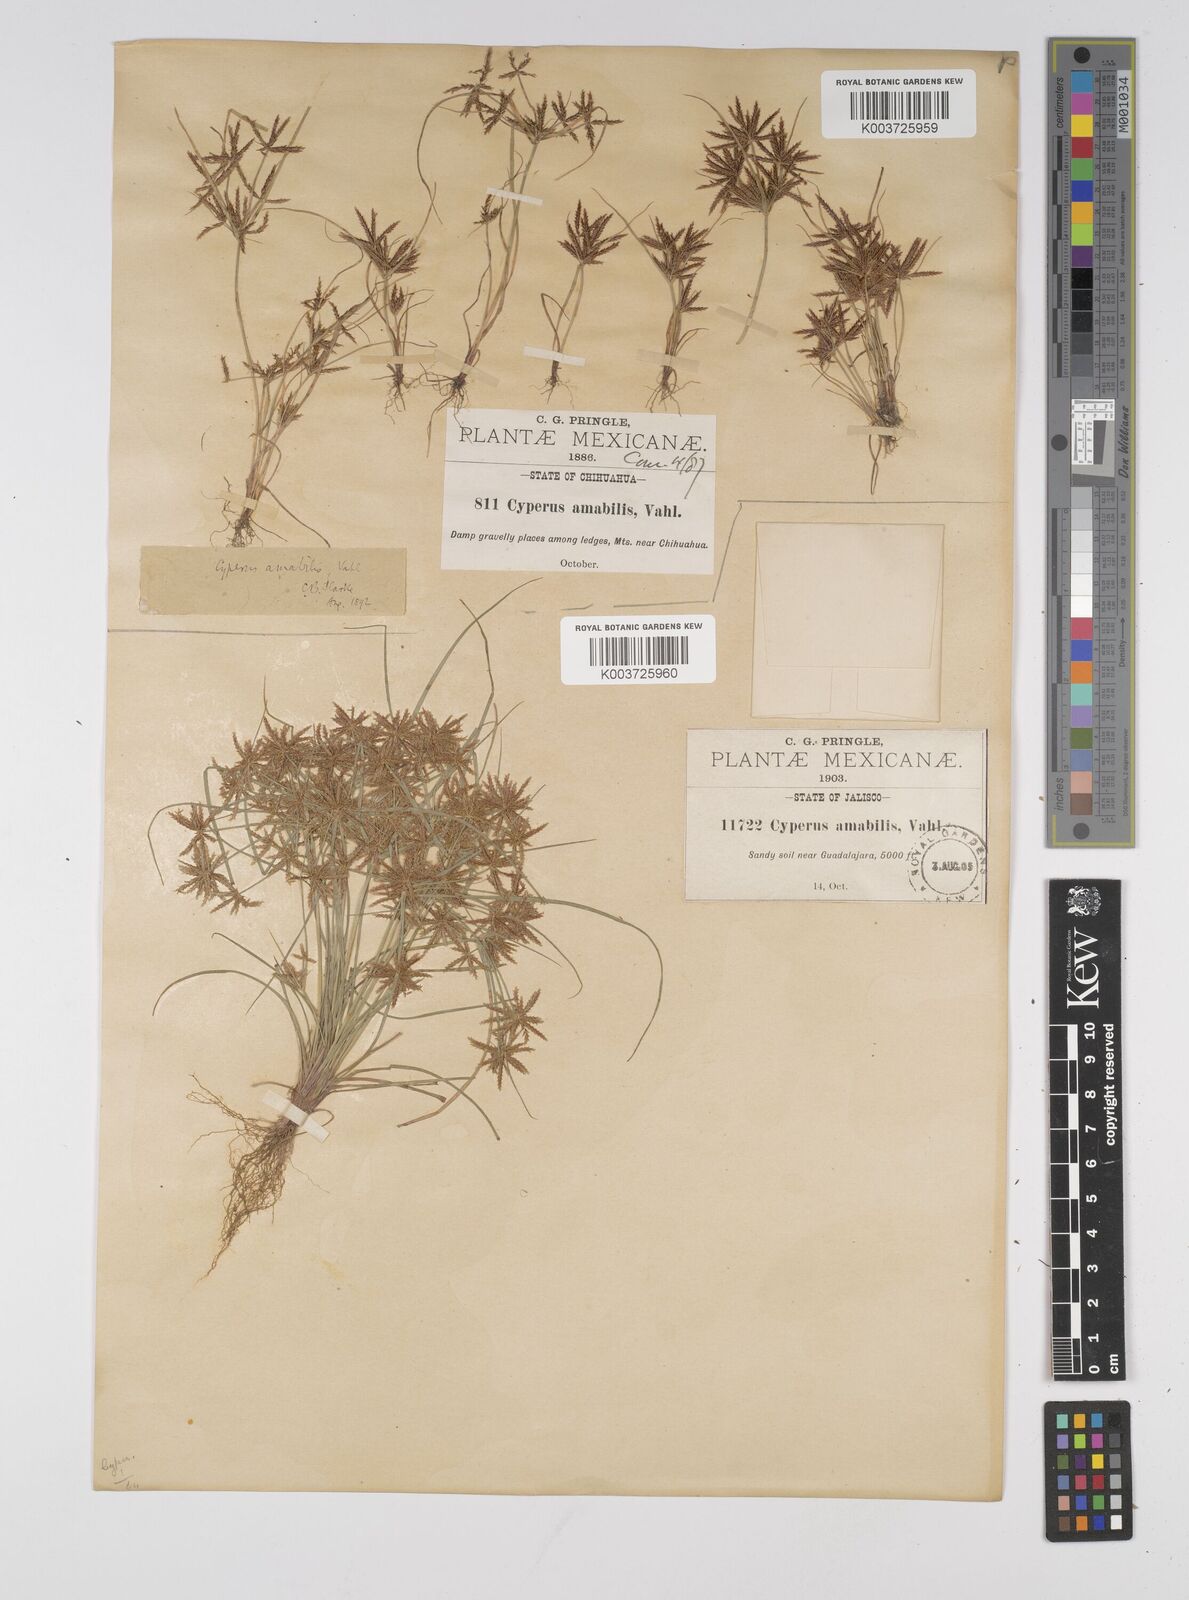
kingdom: Plantae
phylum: Tracheophyta
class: Liliopsida
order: Poales
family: Cyperaceae
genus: Cyperus
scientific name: Cyperus amabilis
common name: Foothill flat sedge
